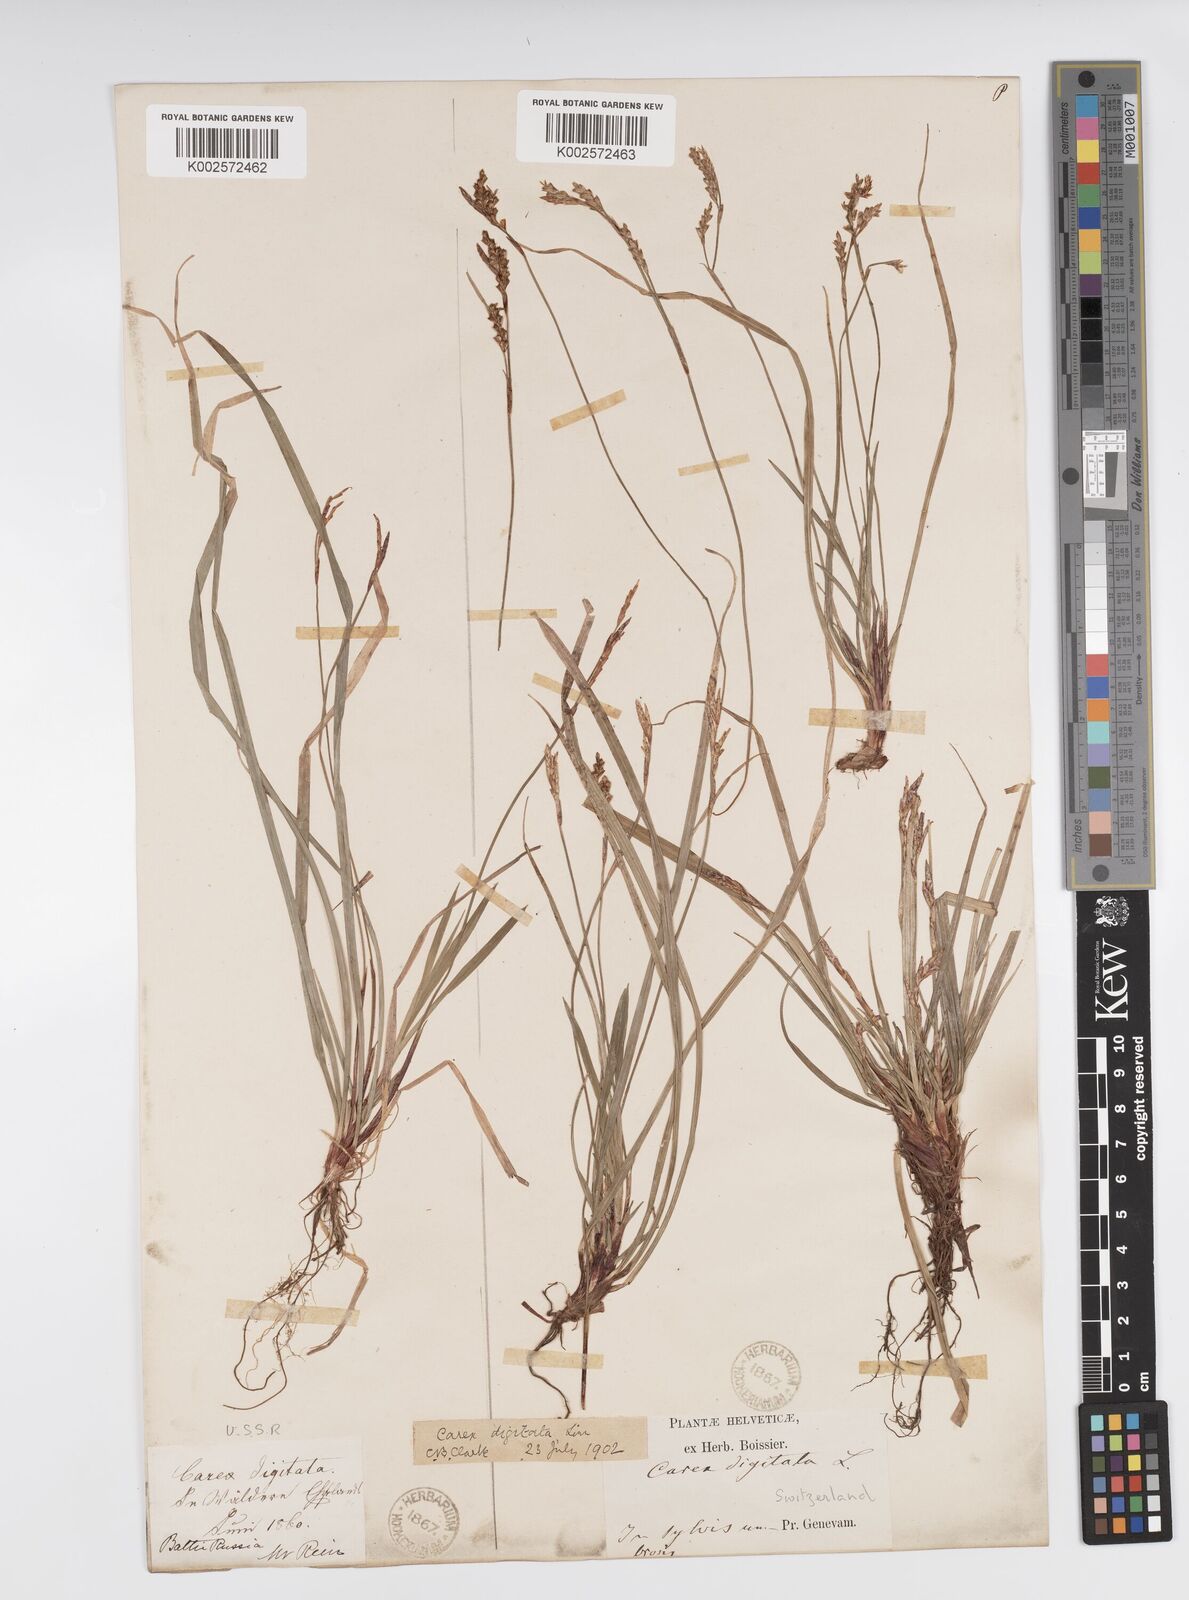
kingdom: Plantae
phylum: Tracheophyta
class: Liliopsida
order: Poales
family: Cyperaceae
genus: Carex
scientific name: Carex digitata
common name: Fingered sedge
